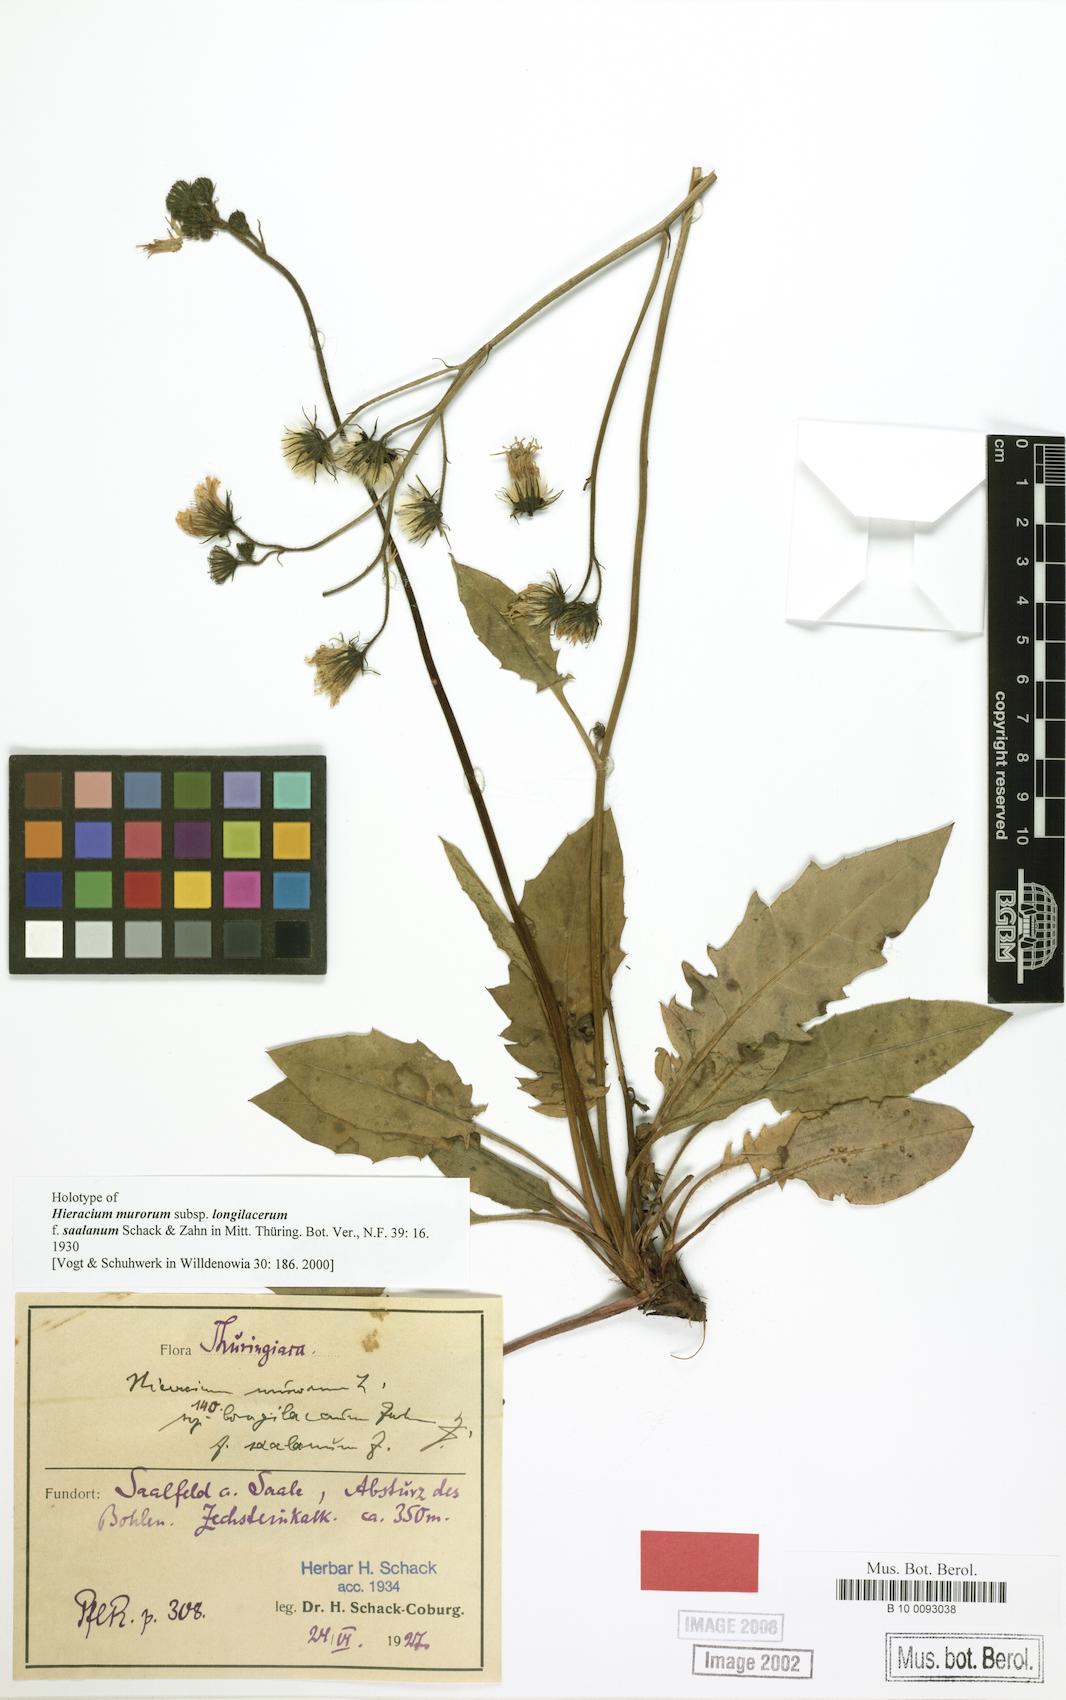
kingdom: Plantae
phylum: Tracheophyta
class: Magnoliopsida
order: Asterales
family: Asteraceae
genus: Hieracium
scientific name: Hieracium murorum
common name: Wall hawkweed
